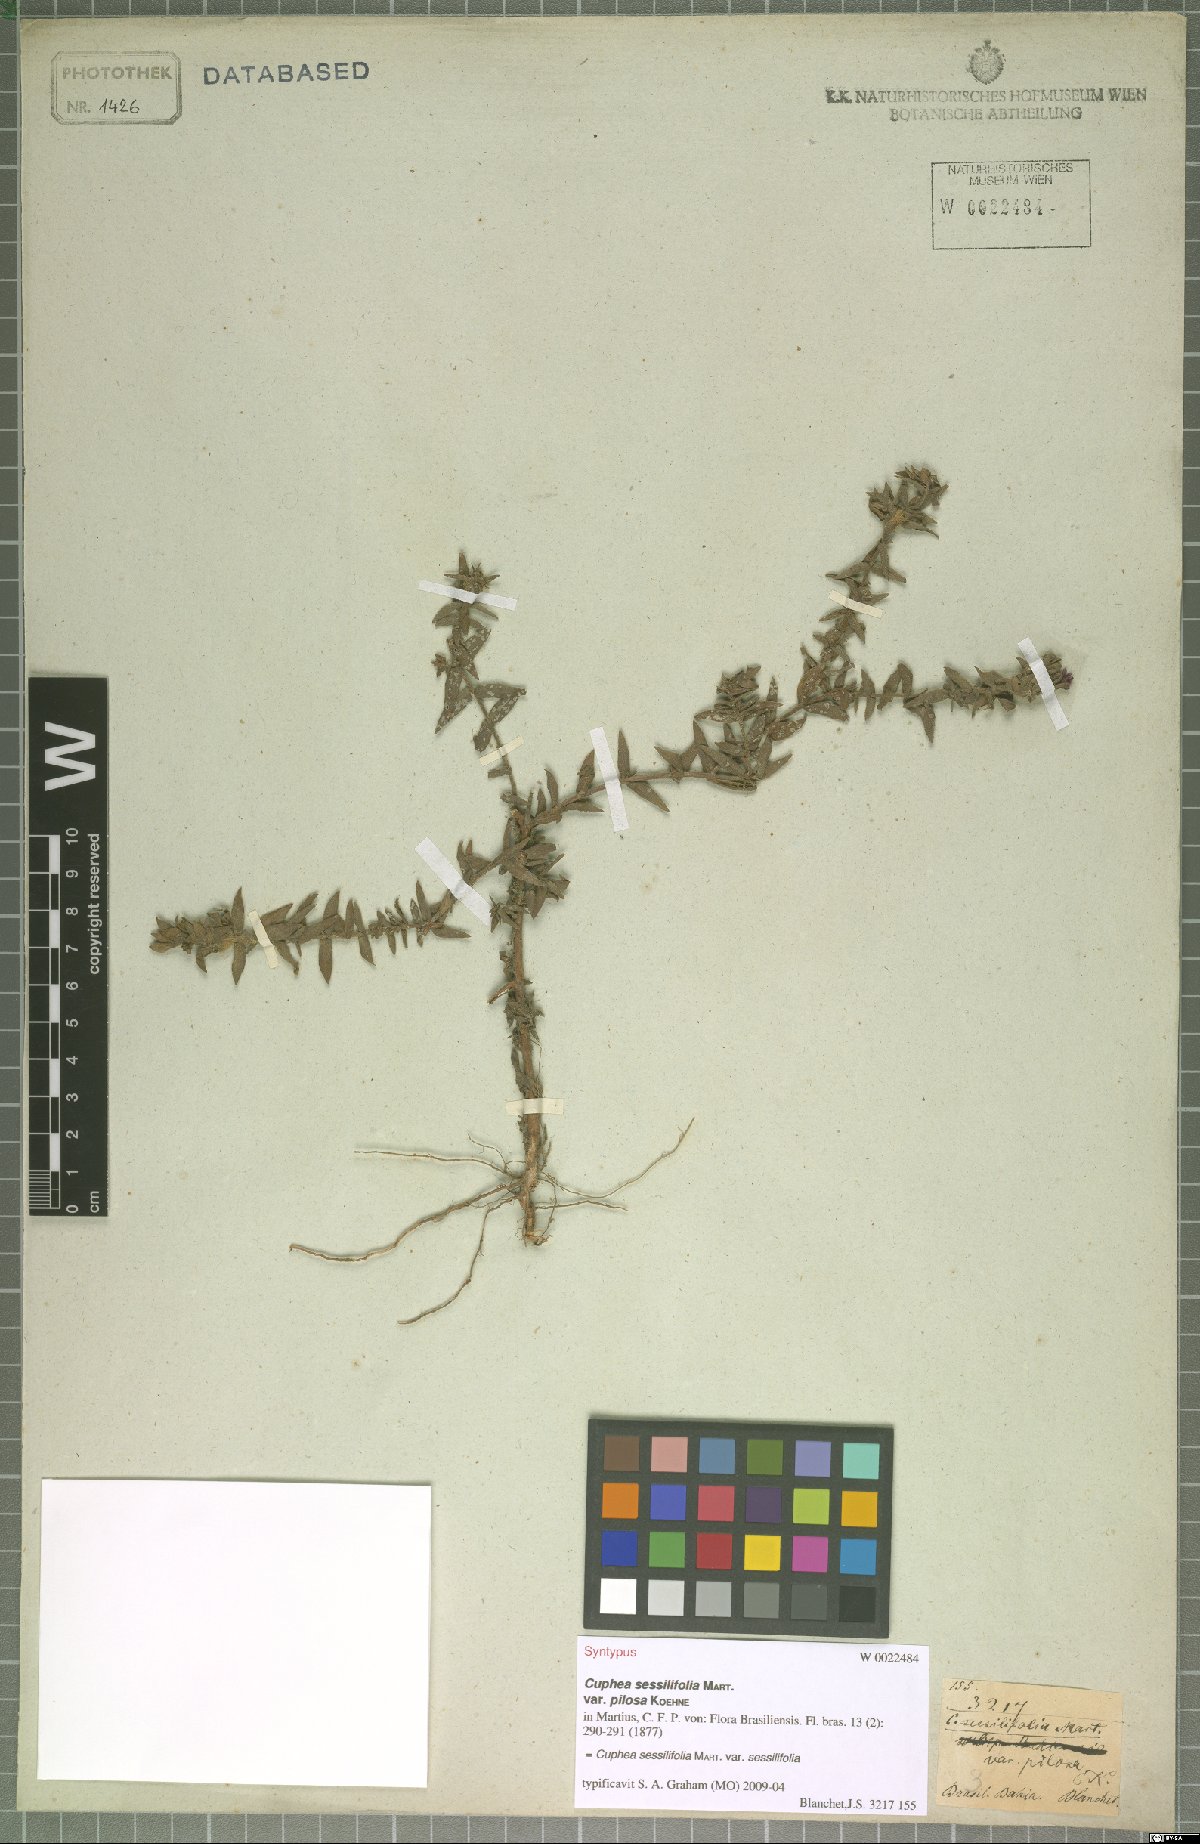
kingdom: Plantae
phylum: Tracheophyta
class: Magnoliopsida
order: Myrtales
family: Lythraceae
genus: Cuphea
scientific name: Cuphea antisyphilitica
